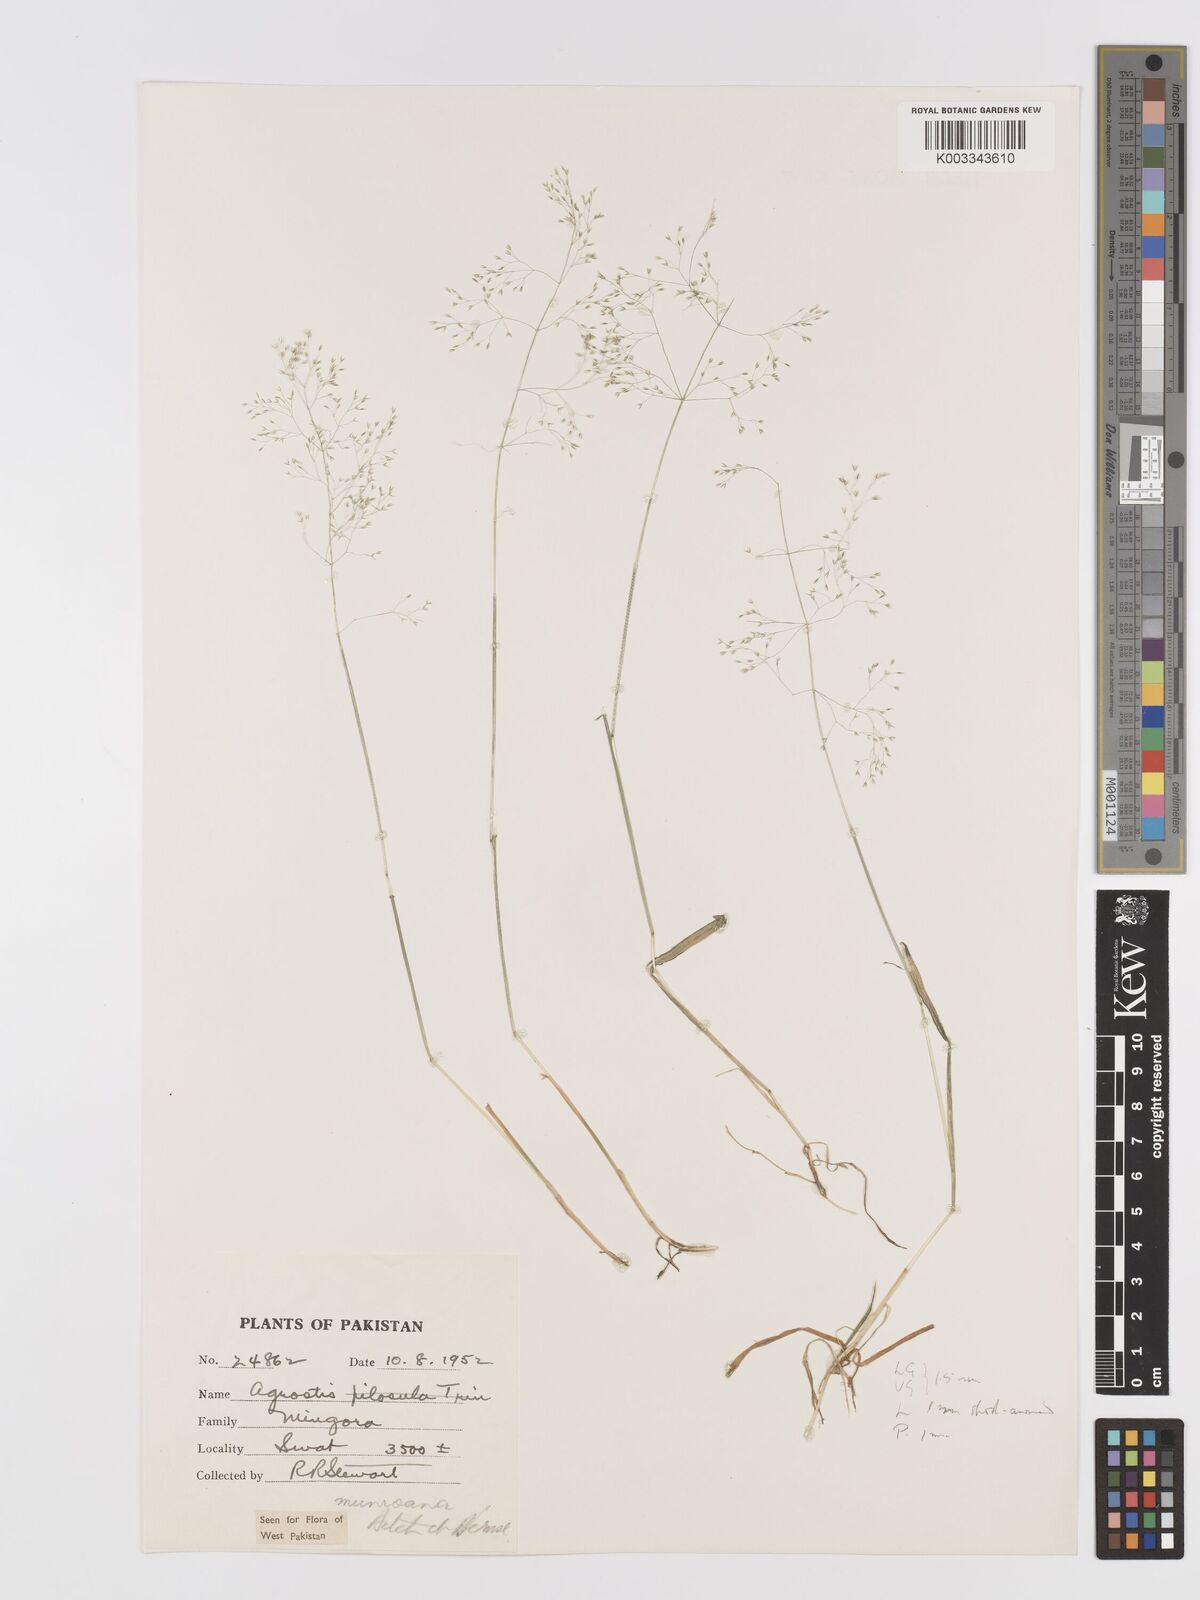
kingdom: Plantae
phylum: Tracheophyta
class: Liliopsida
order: Poales
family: Poaceae
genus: Agrostis
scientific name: Agrostis munroana
